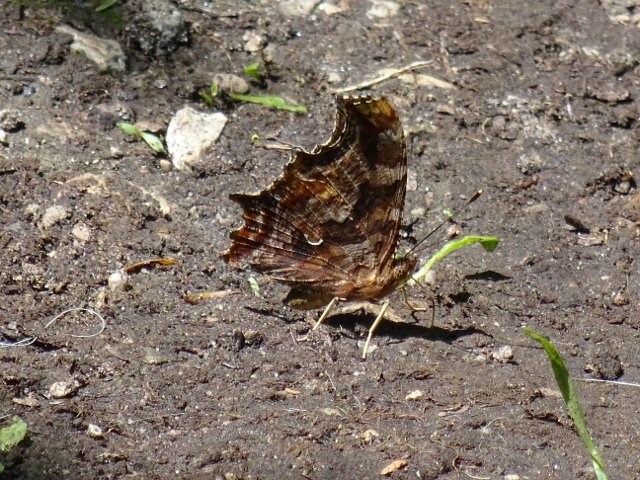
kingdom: Animalia
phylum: Arthropoda
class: Insecta
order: Lepidoptera
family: Nymphalidae
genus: Polygonia
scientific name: Polygonia comma
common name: Eastern Comma
